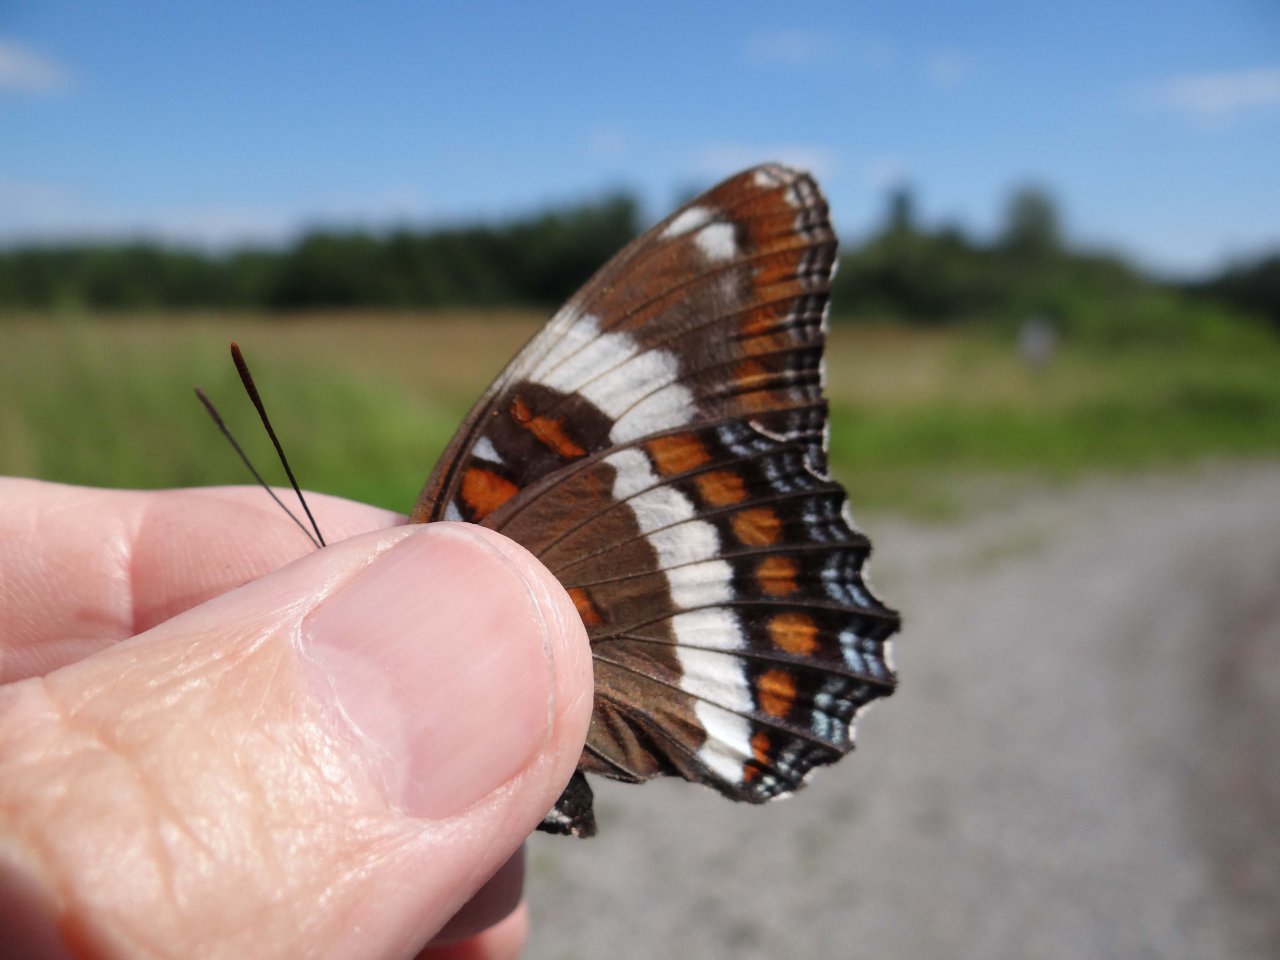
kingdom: Animalia
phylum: Arthropoda
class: Insecta
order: Lepidoptera
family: Nymphalidae
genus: Limenitis
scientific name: Limenitis arthemis
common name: Red-spotted Admiral
